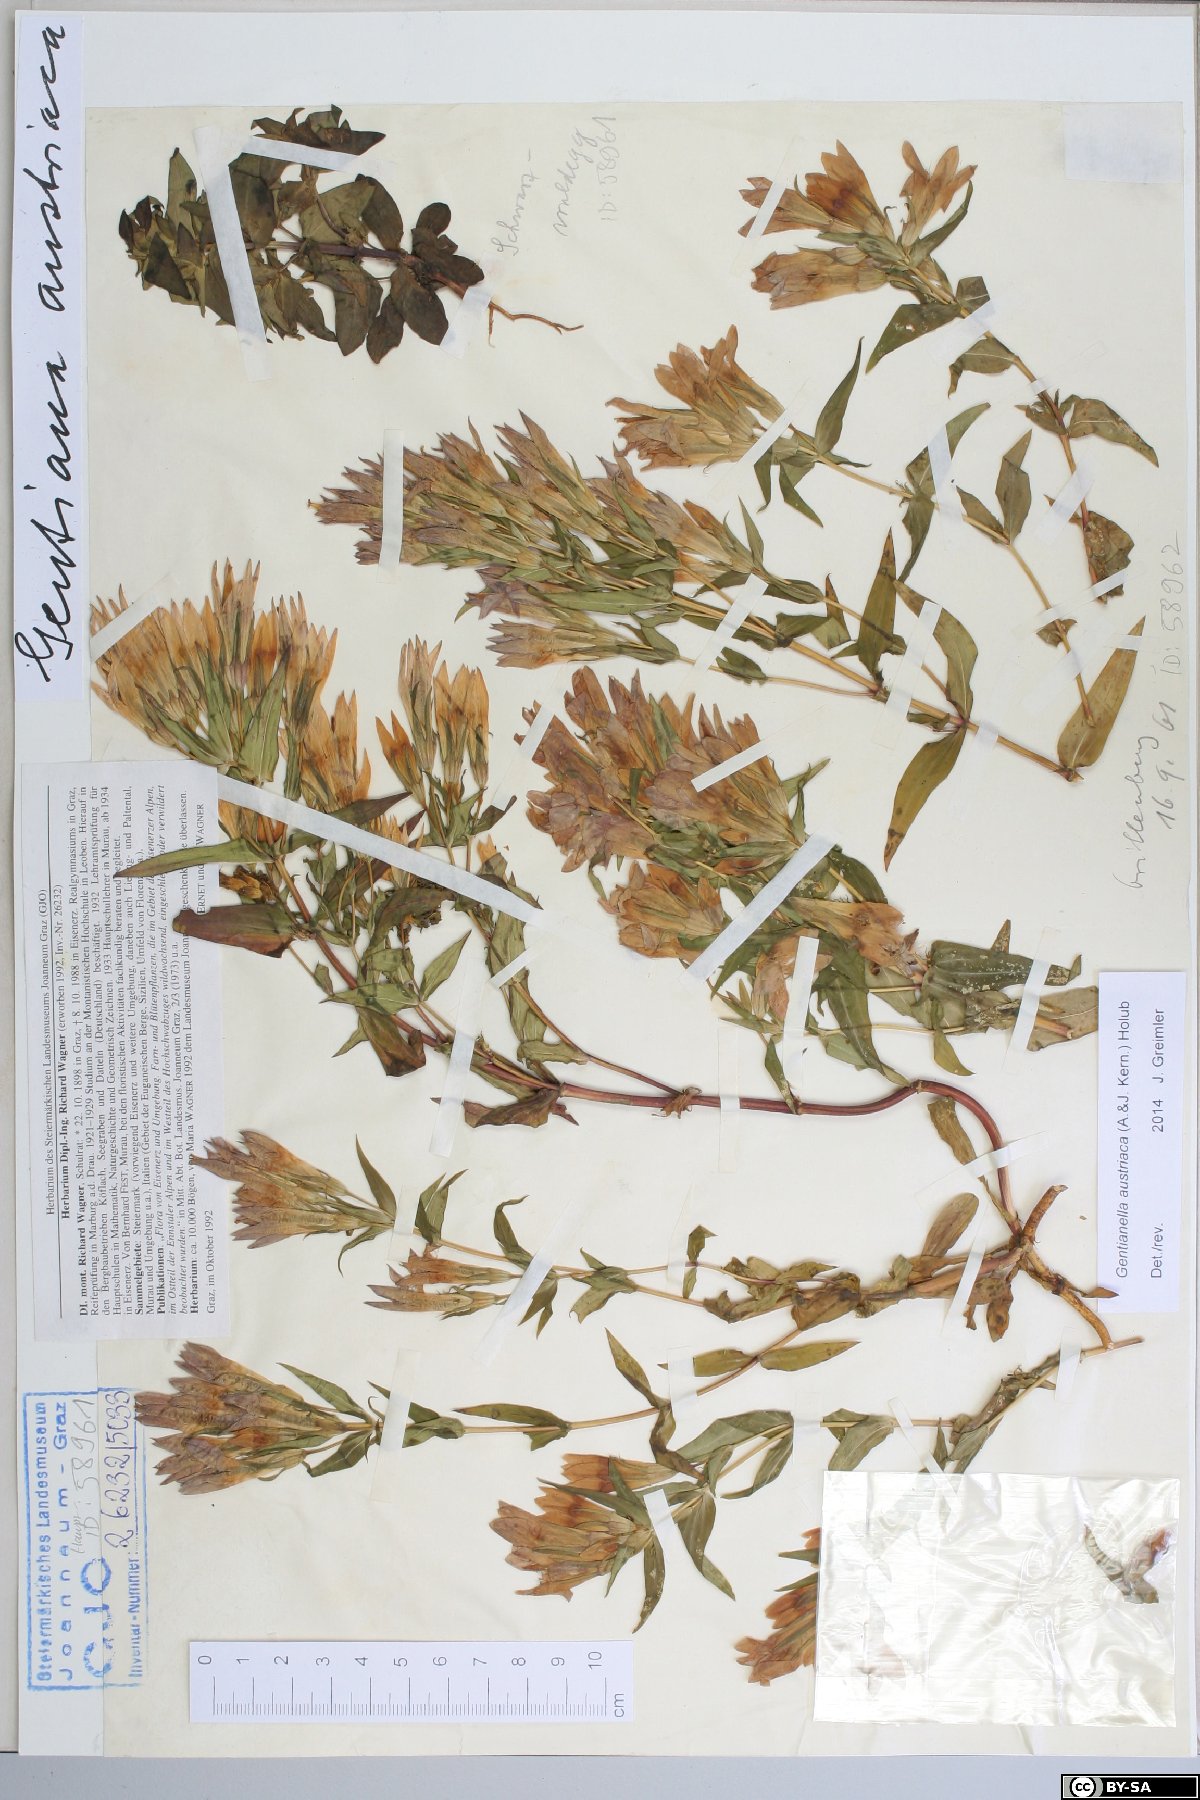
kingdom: Plantae
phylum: Tracheophyta
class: Magnoliopsida
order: Gentianales
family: Gentianaceae
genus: Gentianella
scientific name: Gentianella austriaca
